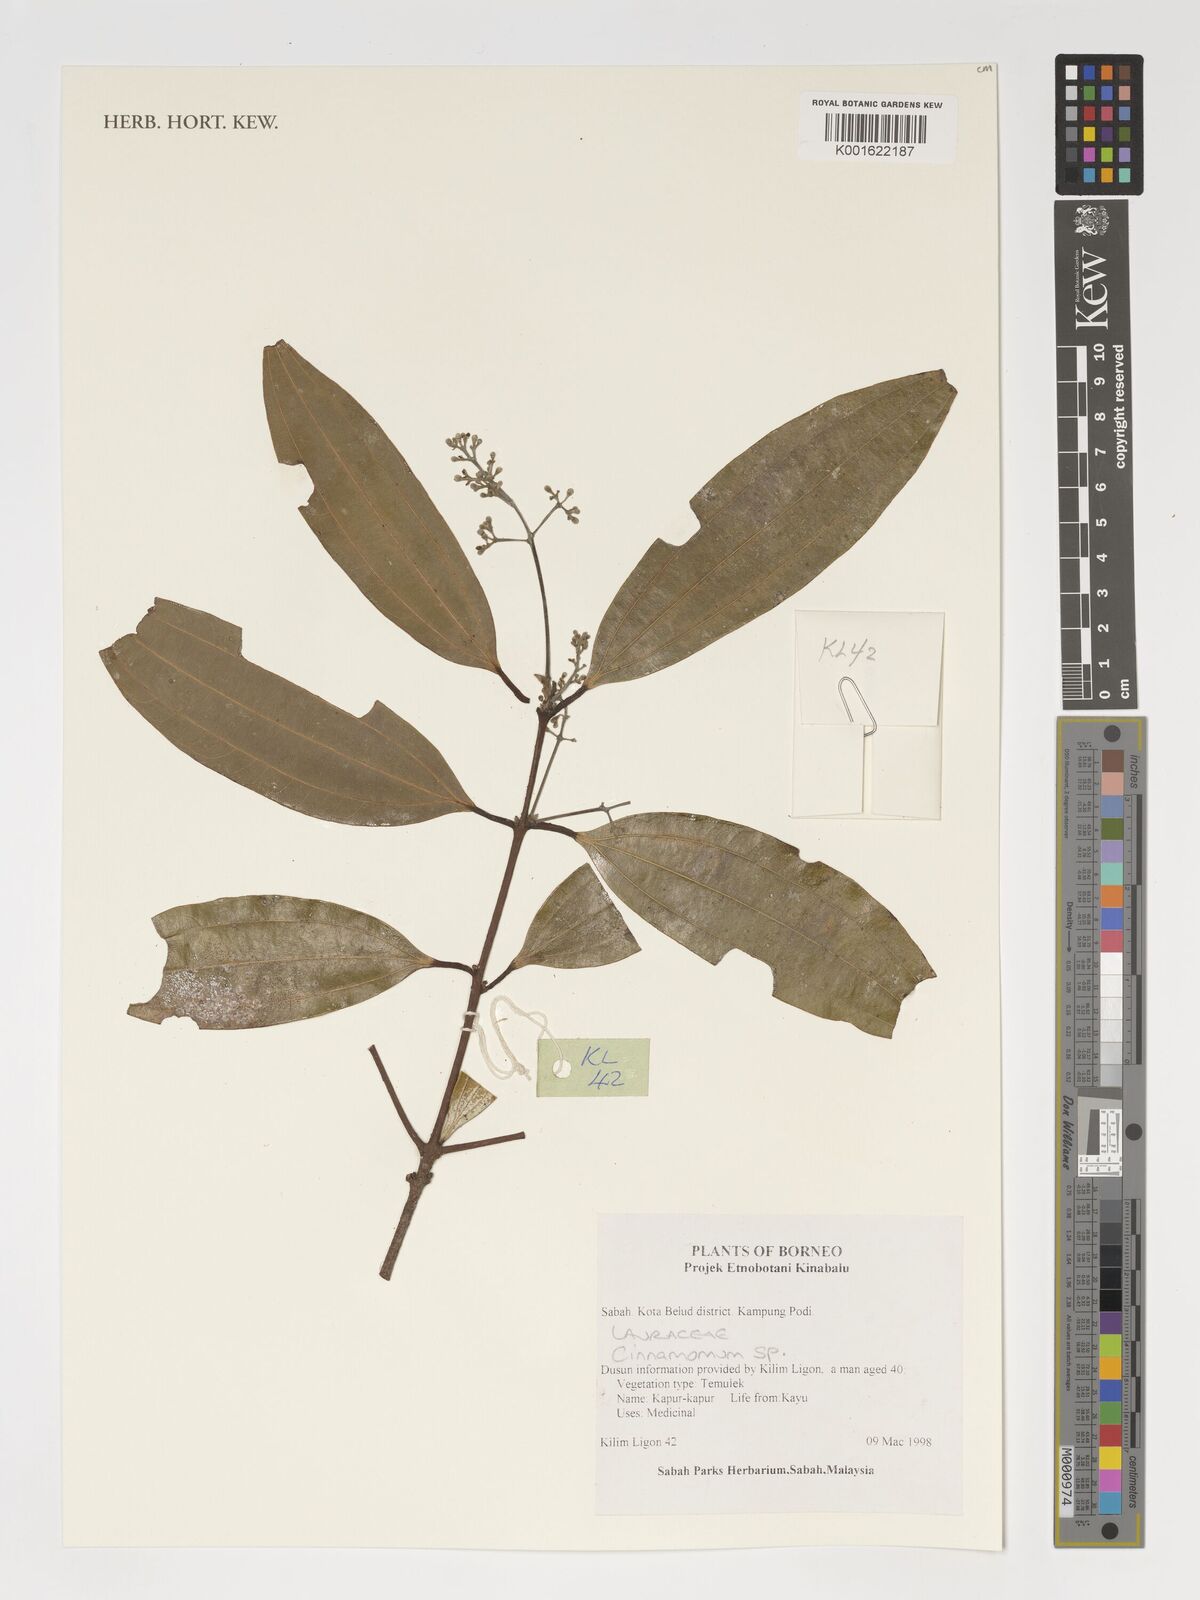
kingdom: Plantae
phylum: Tracheophyta
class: Magnoliopsida
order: Laurales
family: Lauraceae
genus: Cinnamomum
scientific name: Cinnamomum
